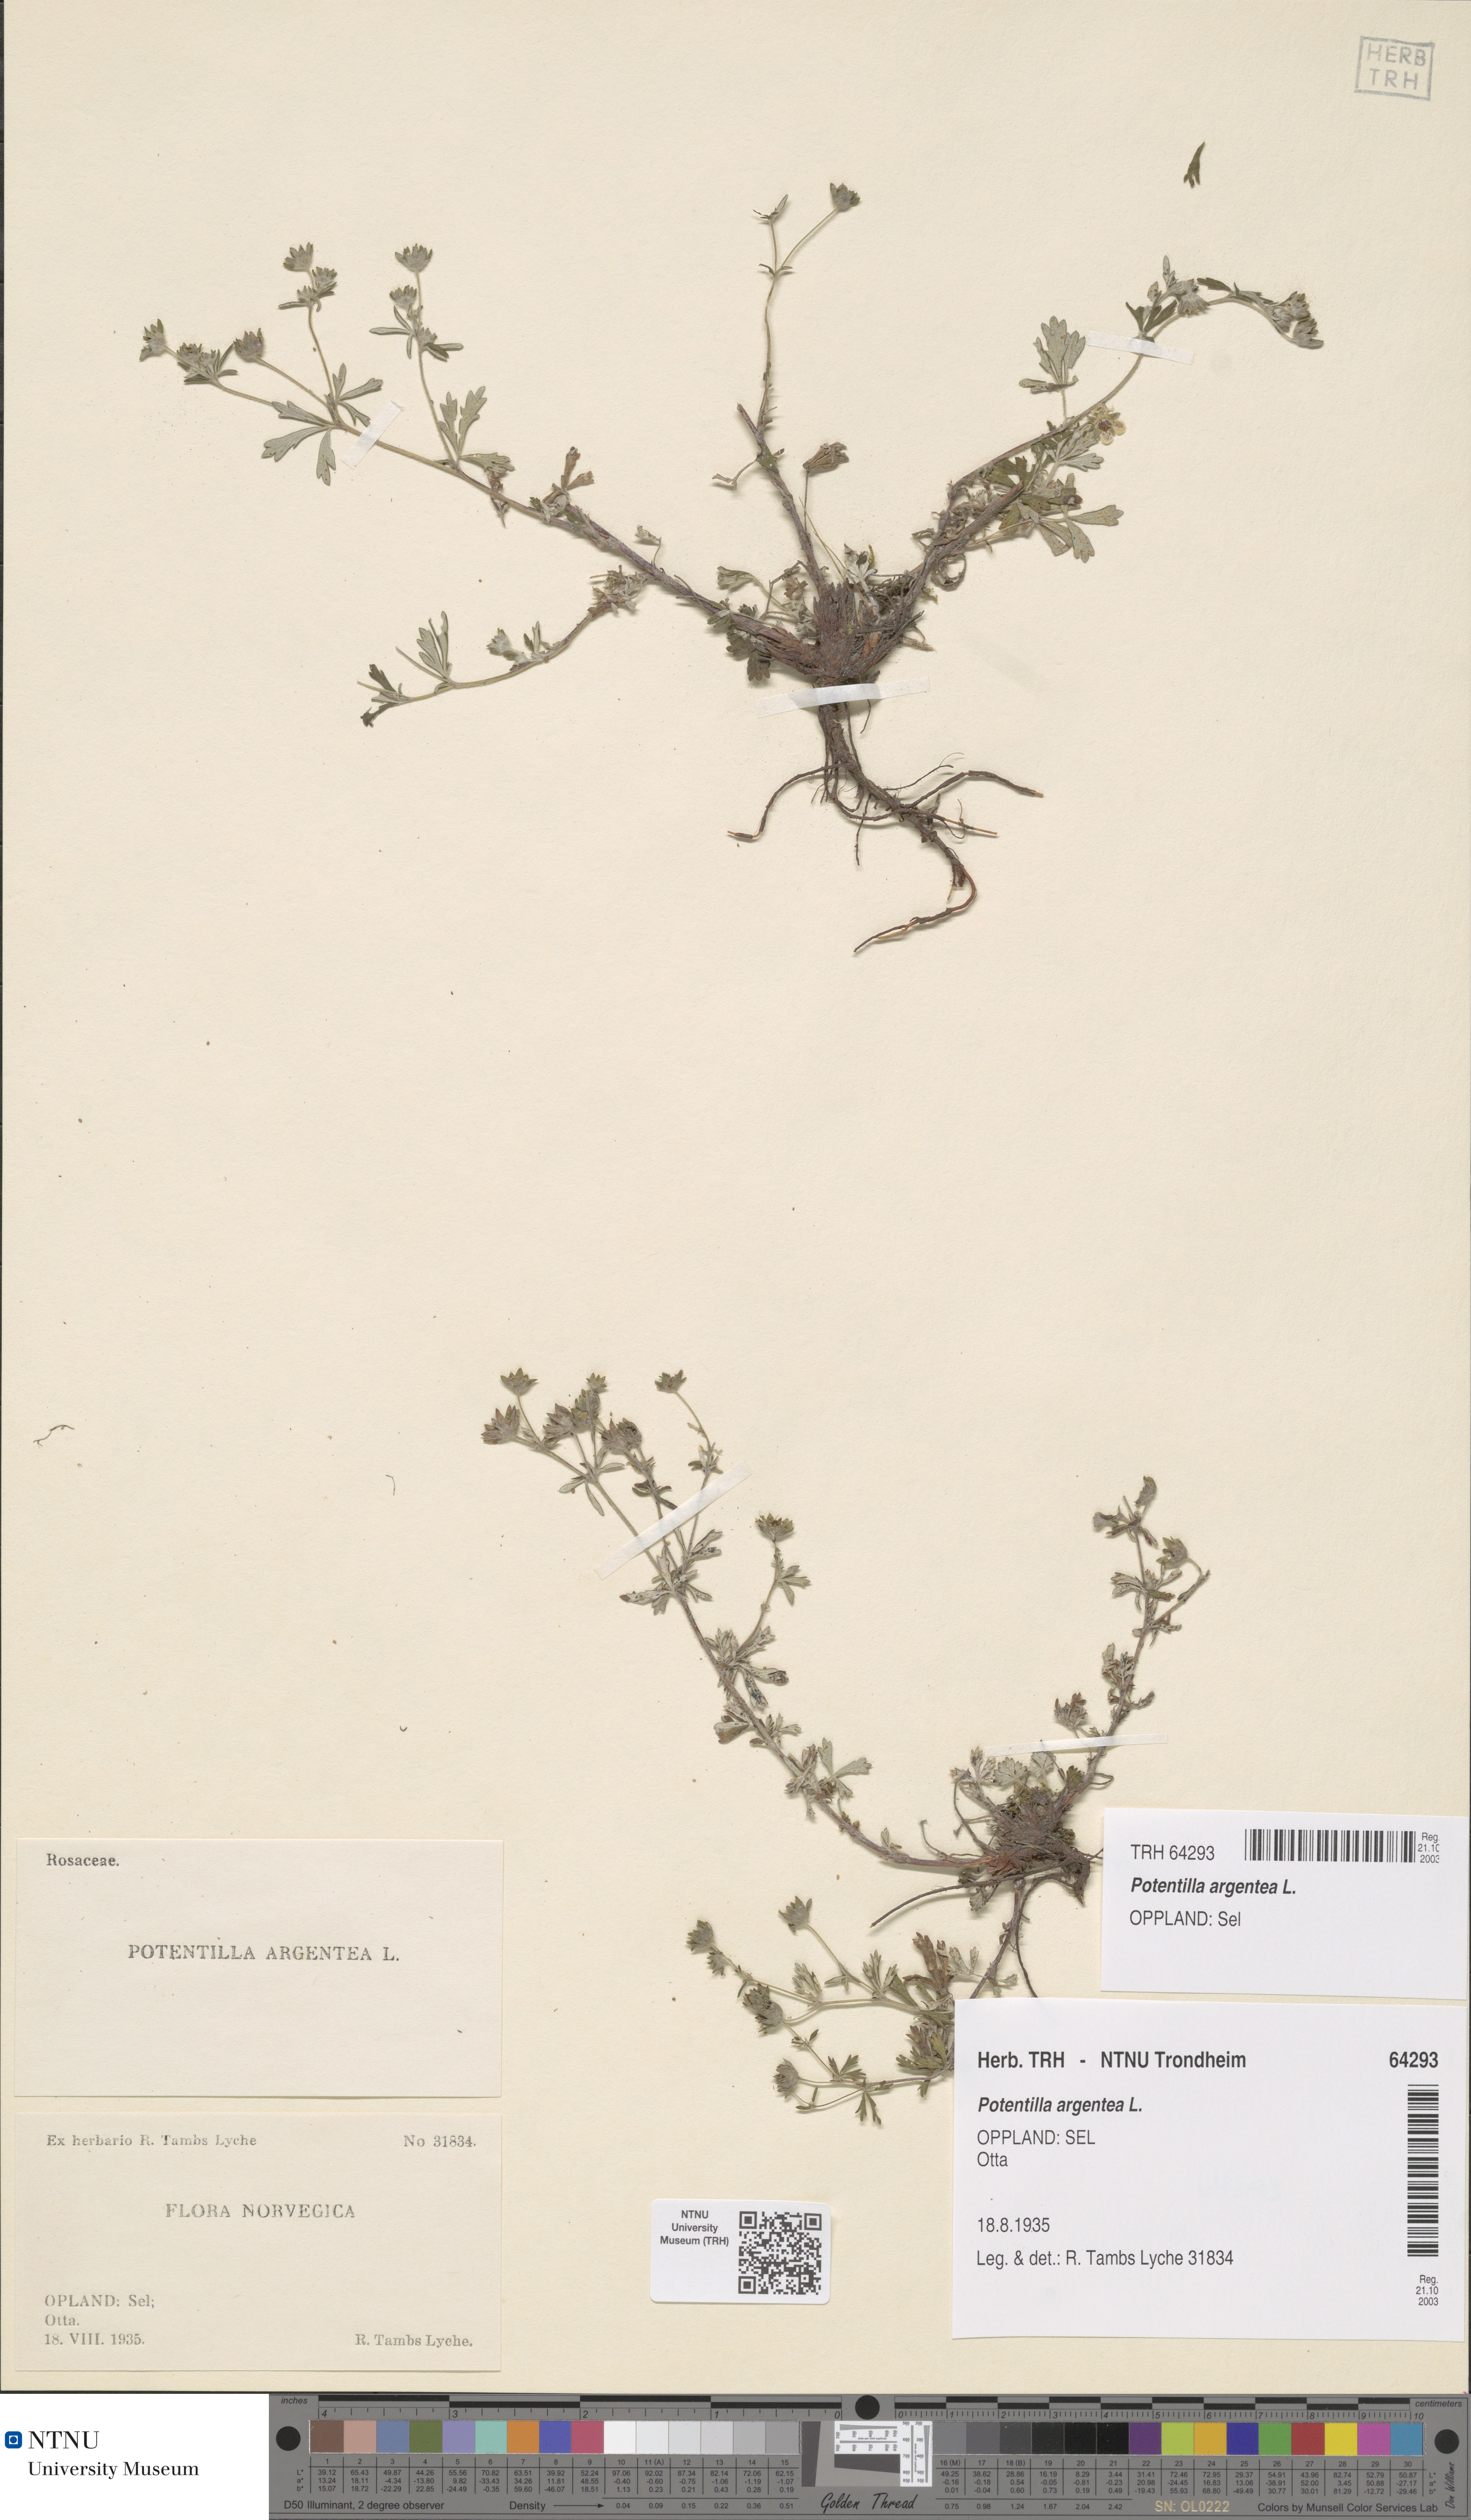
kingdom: Plantae
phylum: Tracheophyta
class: Magnoliopsida
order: Rosales
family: Rosaceae
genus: Potentilla
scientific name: Potentilla argentea
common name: Hoary cinquefoil
